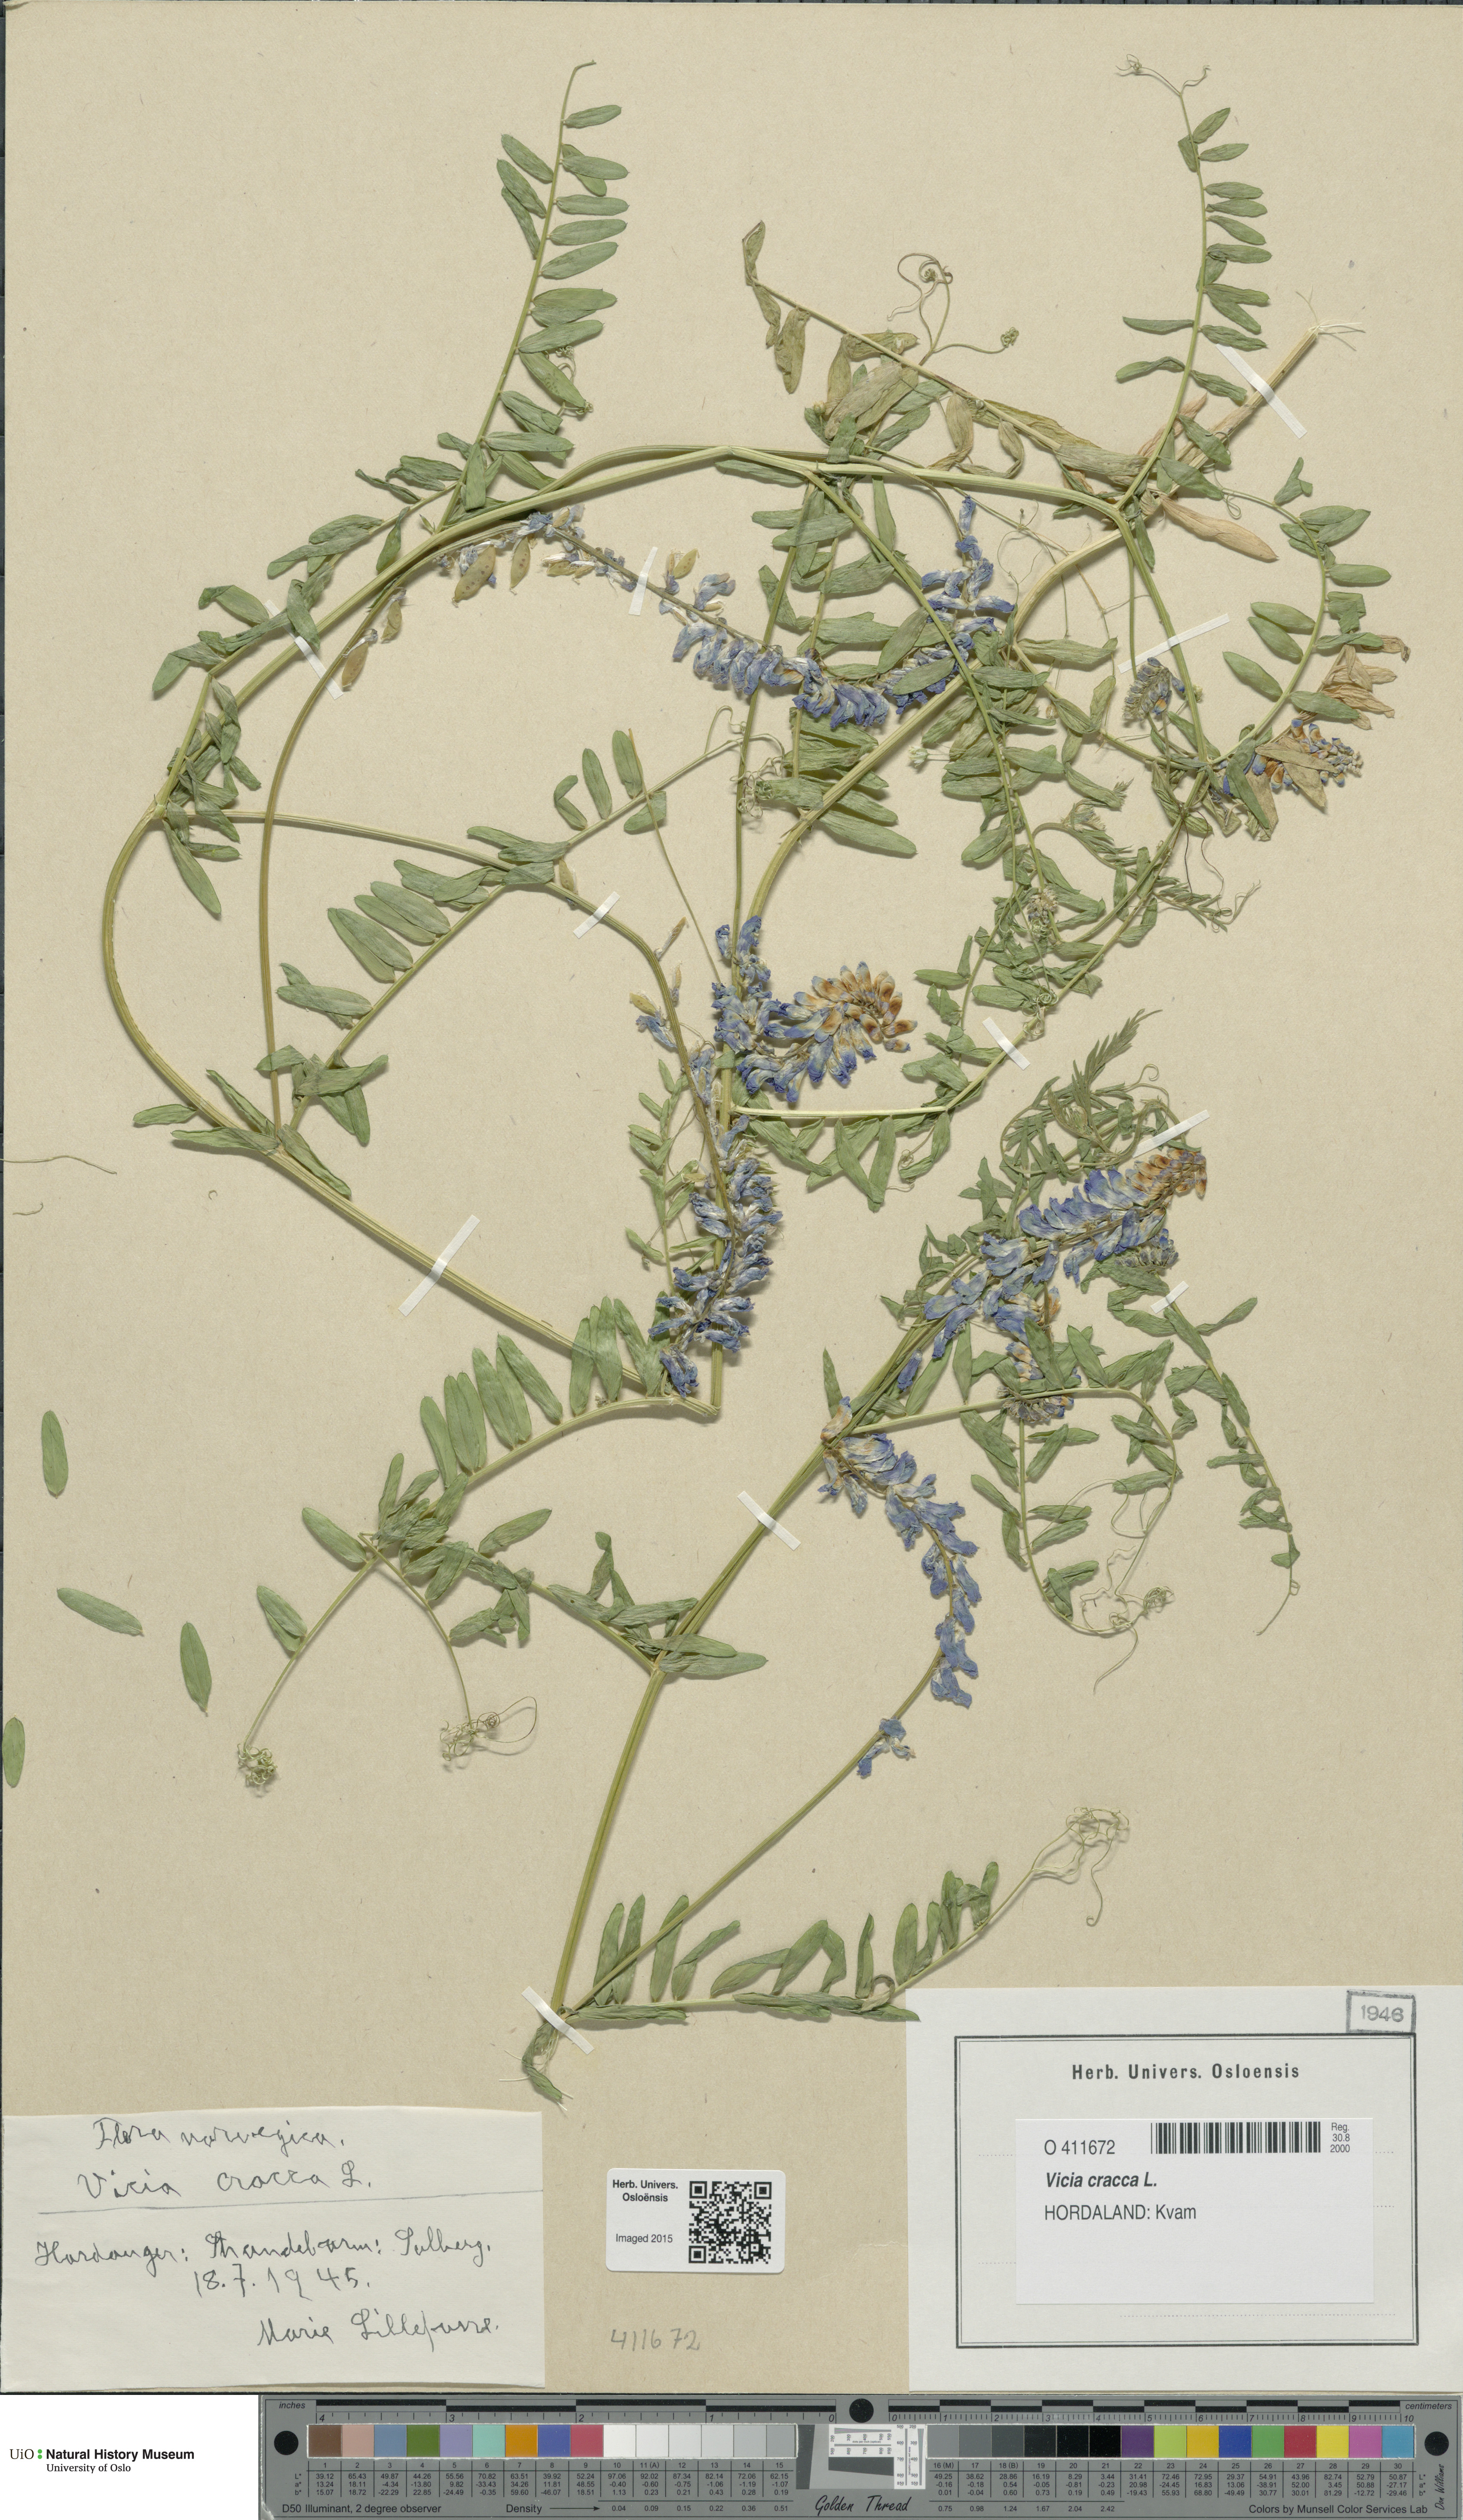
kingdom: Plantae
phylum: Tracheophyta
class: Magnoliopsida
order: Fabales
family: Fabaceae
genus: Vicia
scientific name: Vicia cracca
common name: Bird vetch
